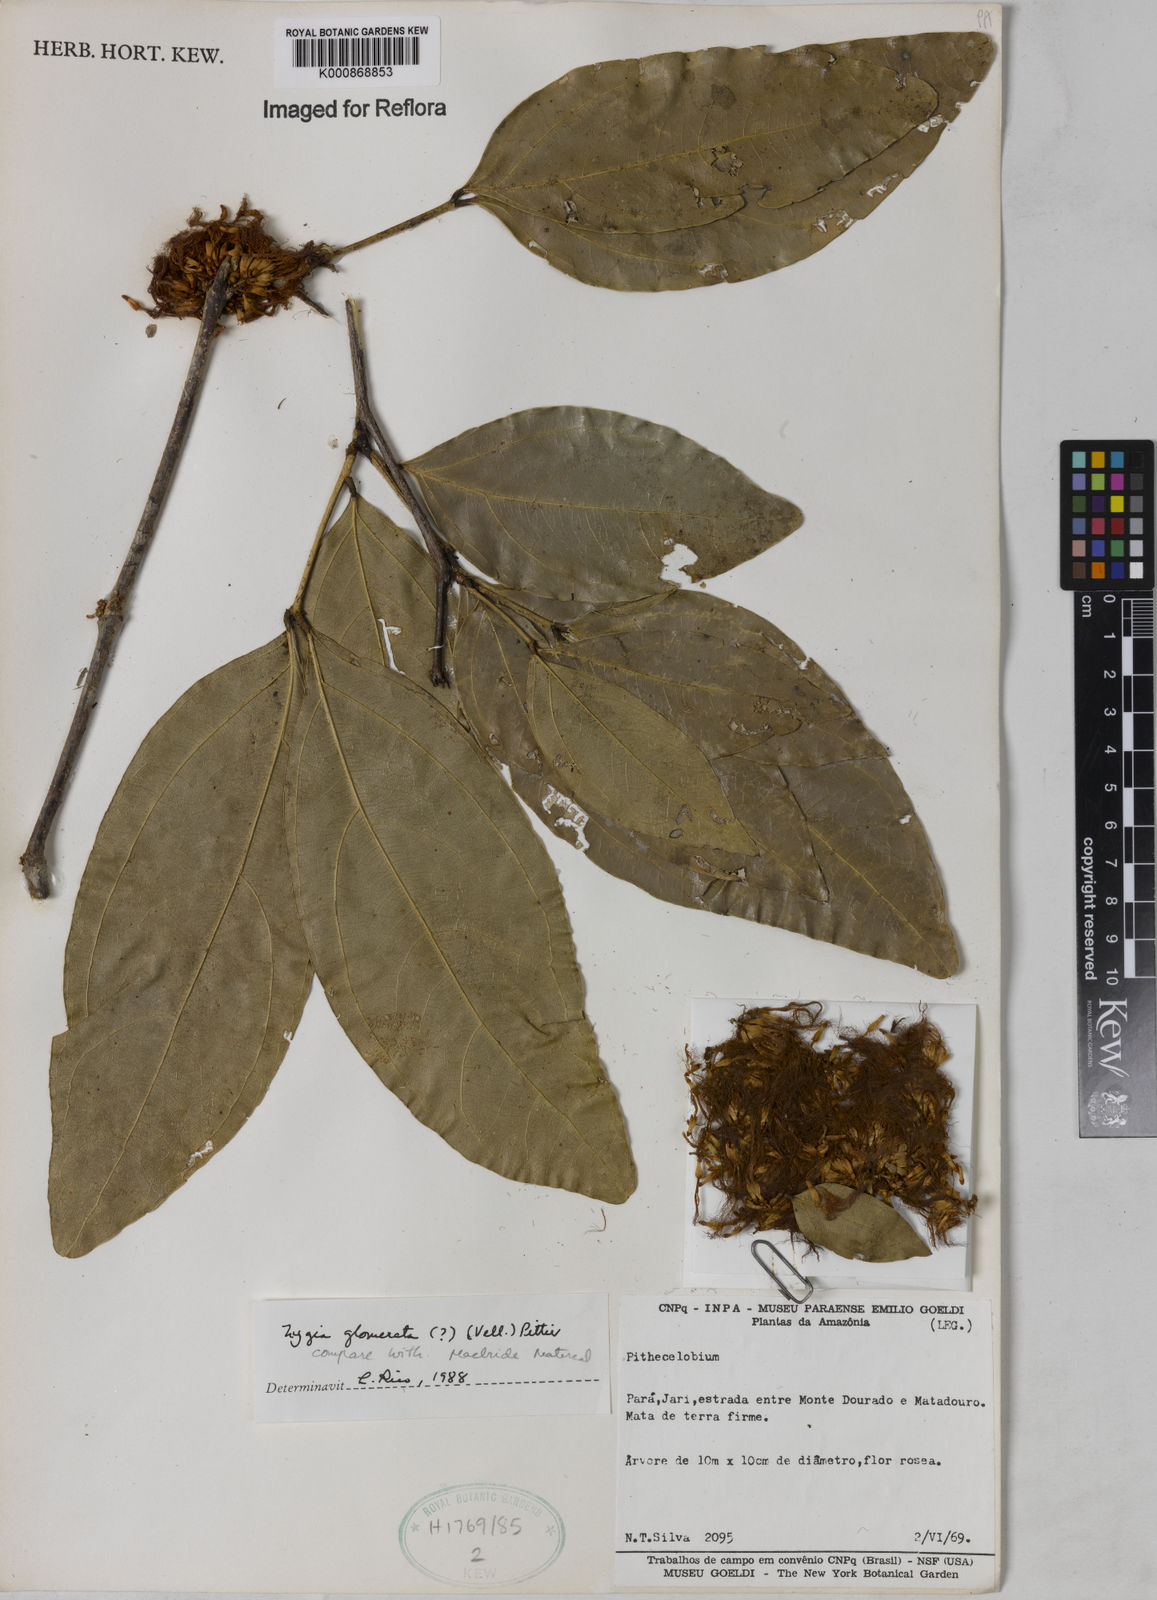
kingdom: Plantae
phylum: Tracheophyta
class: Magnoliopsida
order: Fabales
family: Fabaceae
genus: Zygia
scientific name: Zygia cataractae
